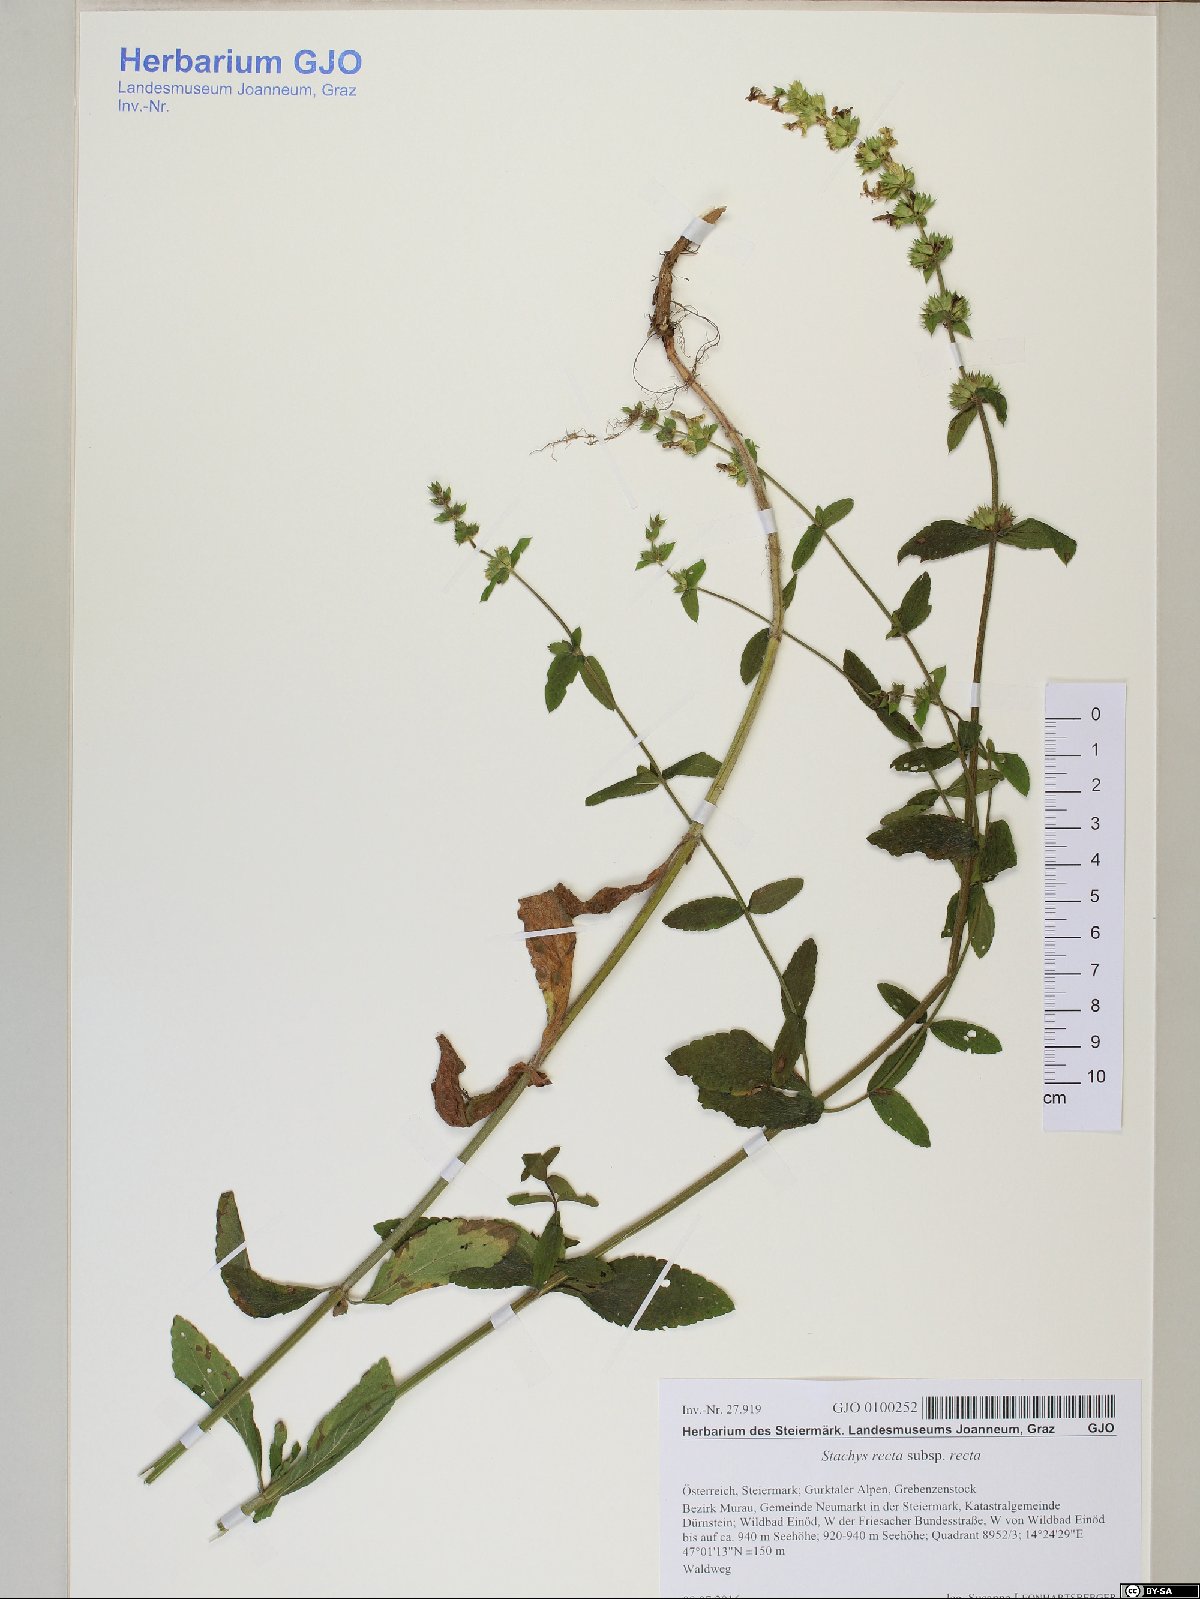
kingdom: Plantae
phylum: Tracheophyta
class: Magnoliopsida
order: Lamiales
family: Lamiaceae
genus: Stachys
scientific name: Stachys recta
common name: Perennial yellow-woundwort
